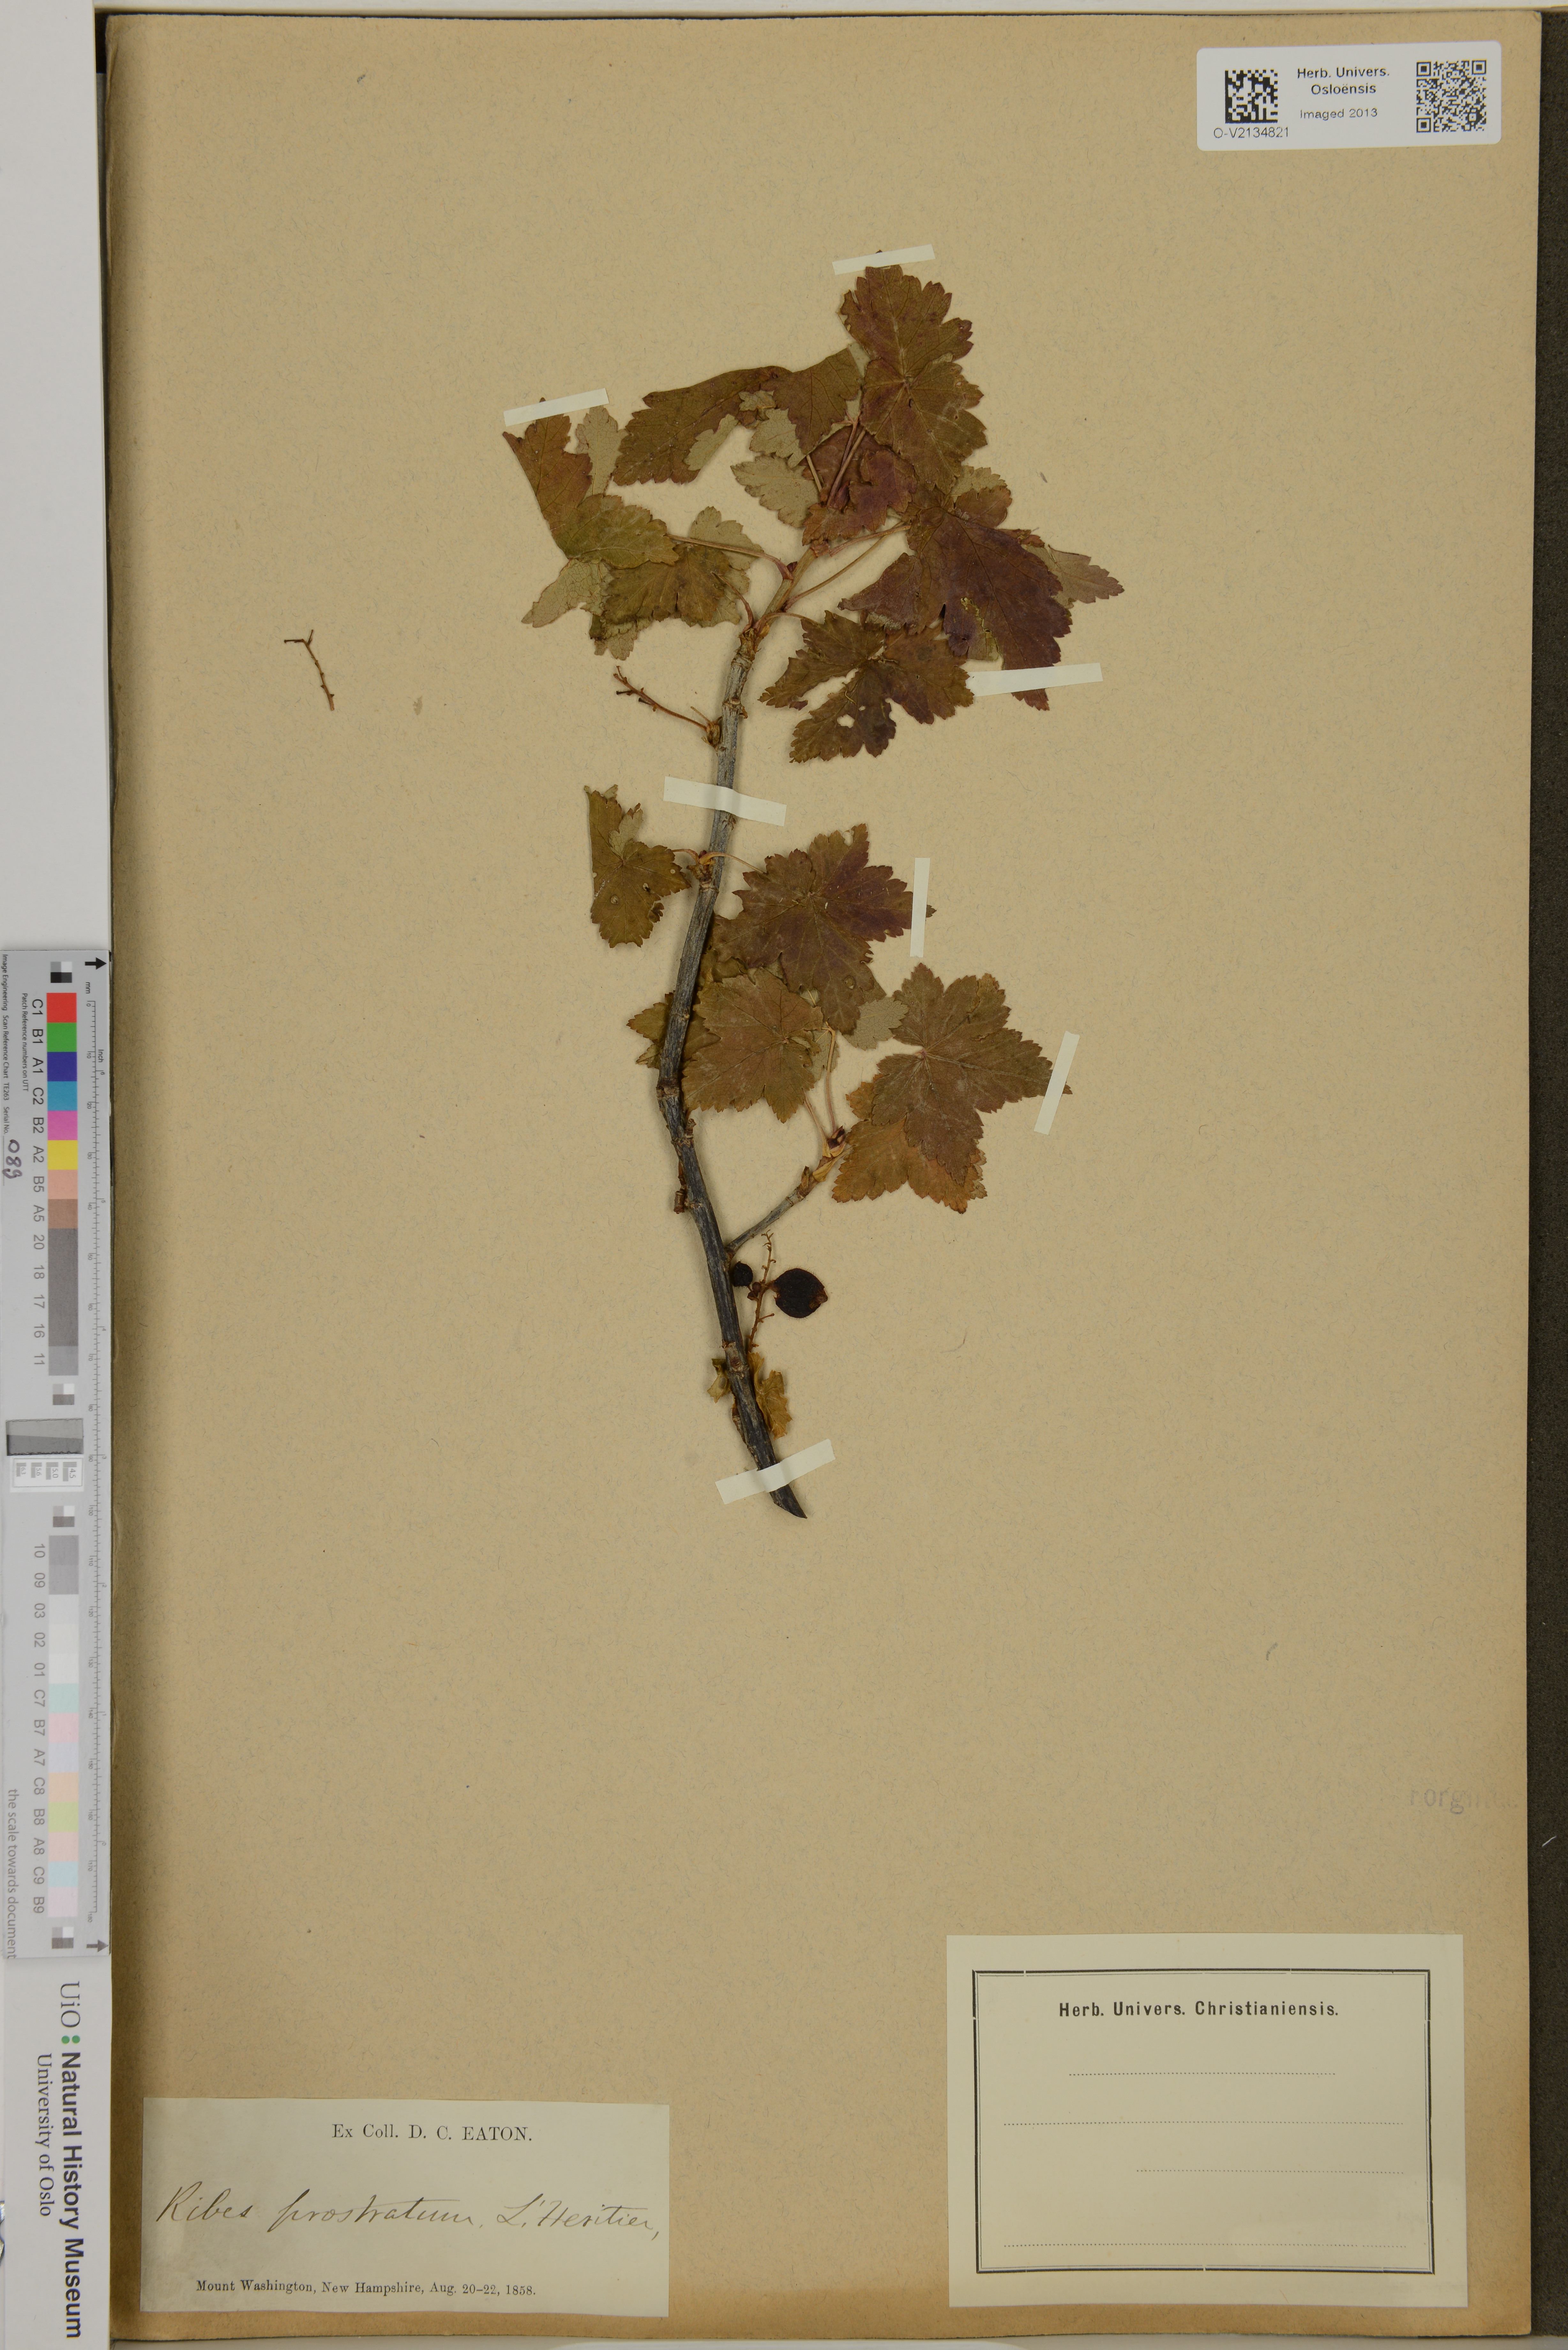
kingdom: Plantae
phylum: Tracheophyta
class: Magnoliopsida
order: Saxifragales
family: Grossulariaceae
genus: Ribes
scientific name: Ribes glandulosum
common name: Skunk currant
